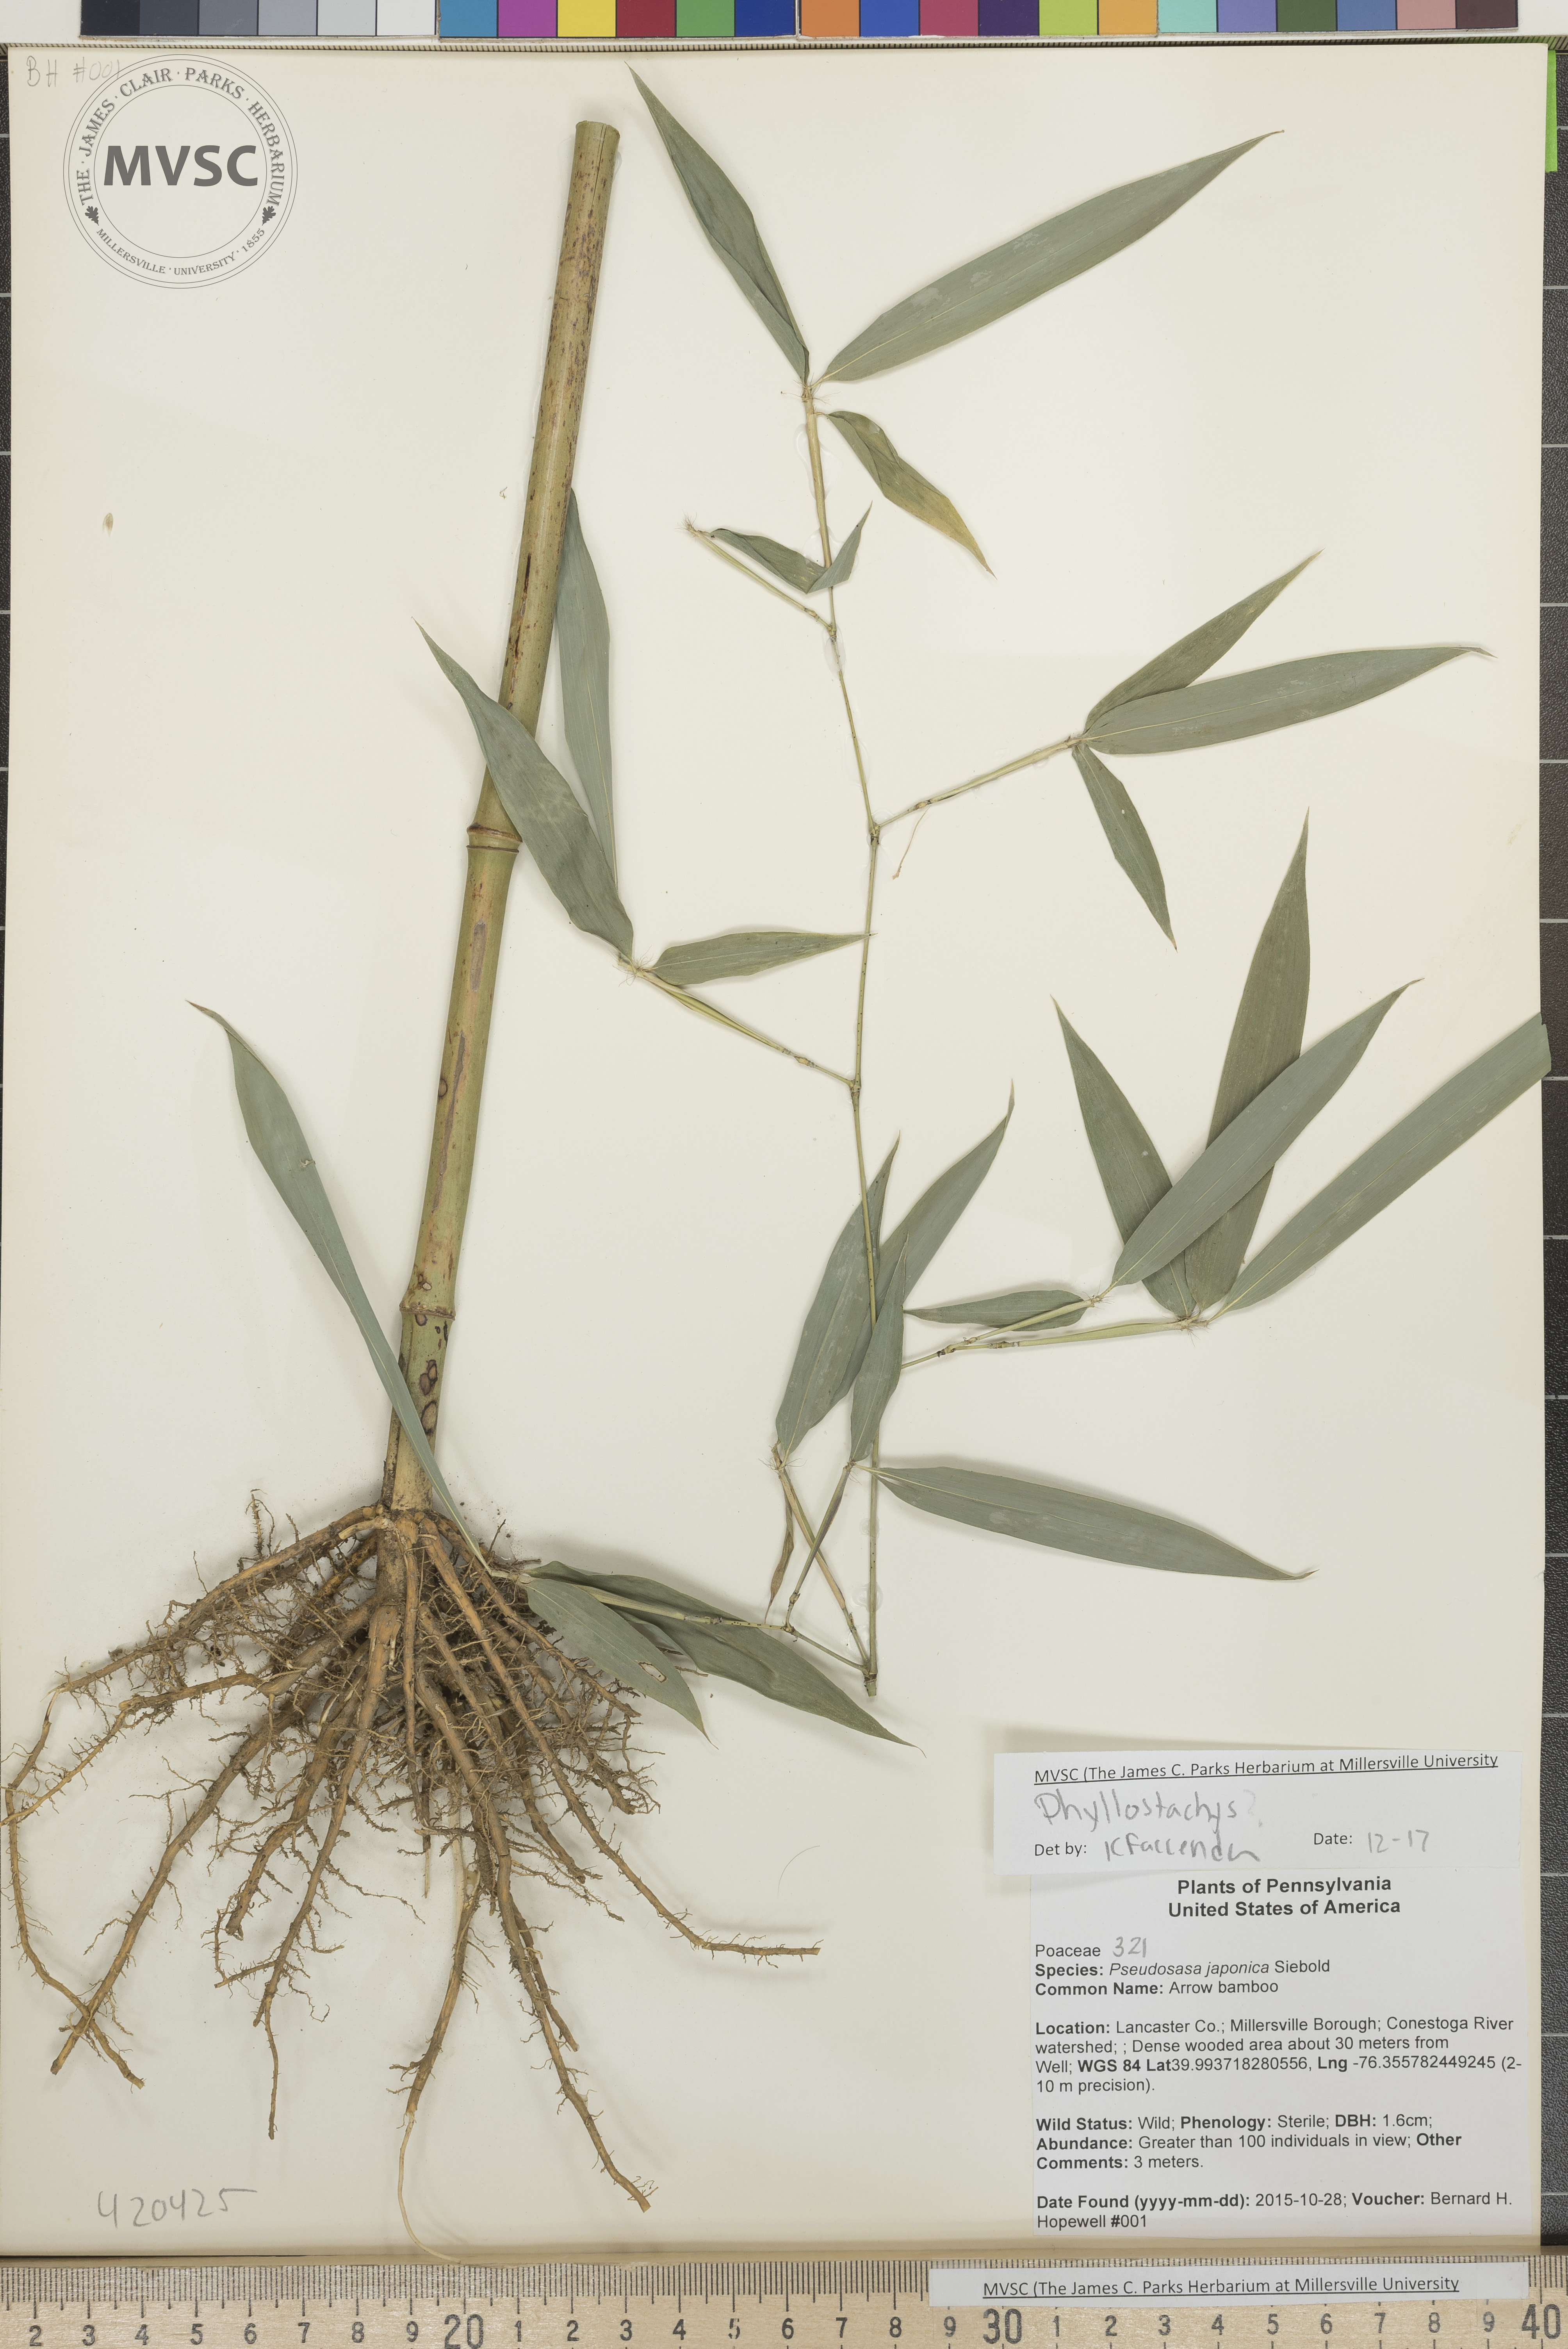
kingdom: Plantae
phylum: Tracheophyta
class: Liliopsida
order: Poales
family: Poaceae
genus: Phyllostachys
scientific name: Phyllostachys aureosulcata
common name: Bamboo
